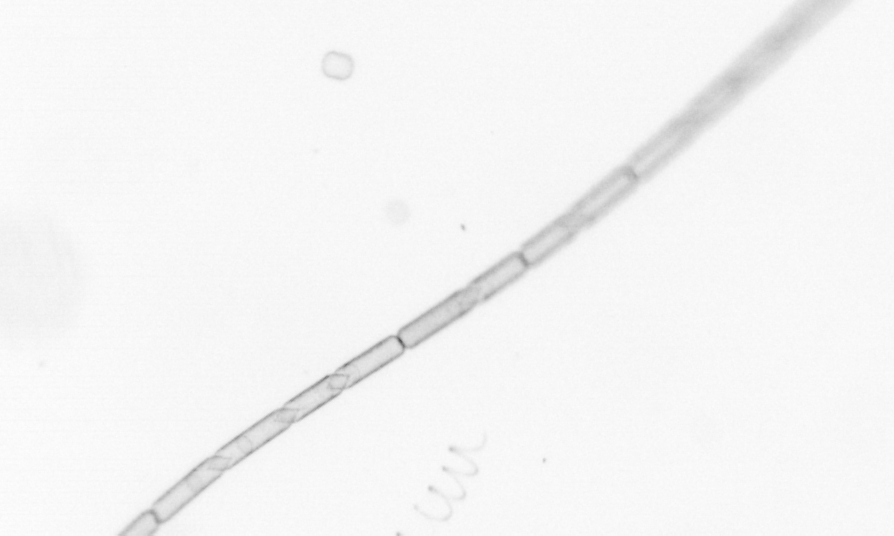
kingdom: Chromista
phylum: Ochrophyta
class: Bacillariophyceae
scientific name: Bacillariophyceae
